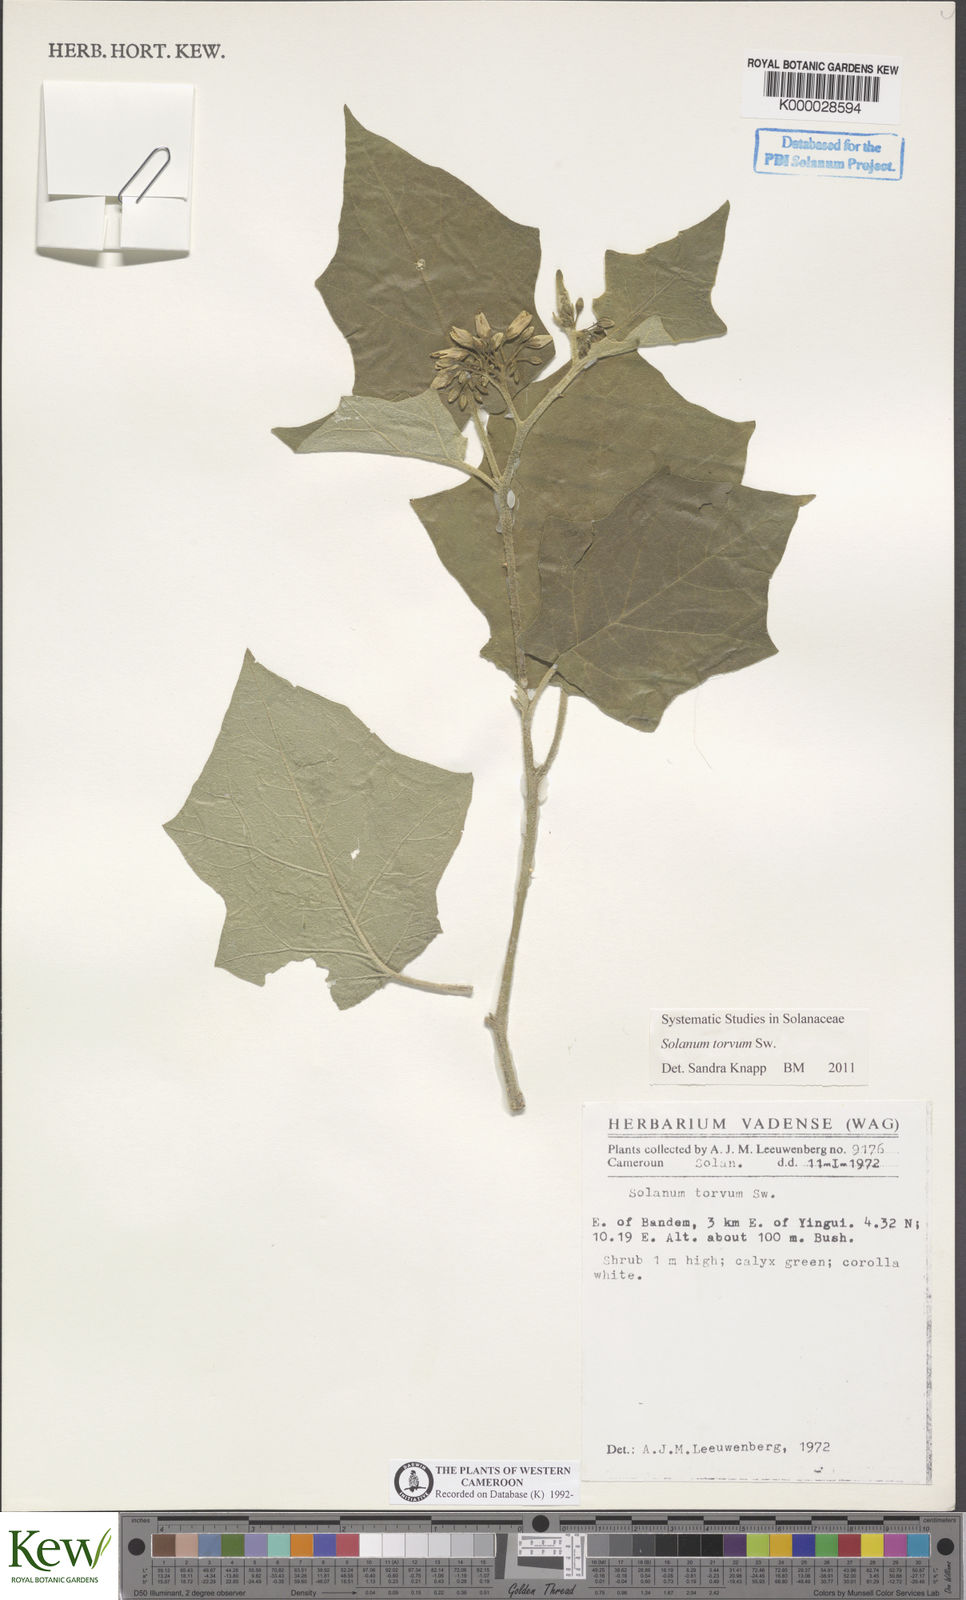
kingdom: Plantae
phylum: Tracheophyta
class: Magnoliopsida
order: Solanales
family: Solanaceae
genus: Solanum
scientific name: Solanum torvum
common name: Turkey berry
